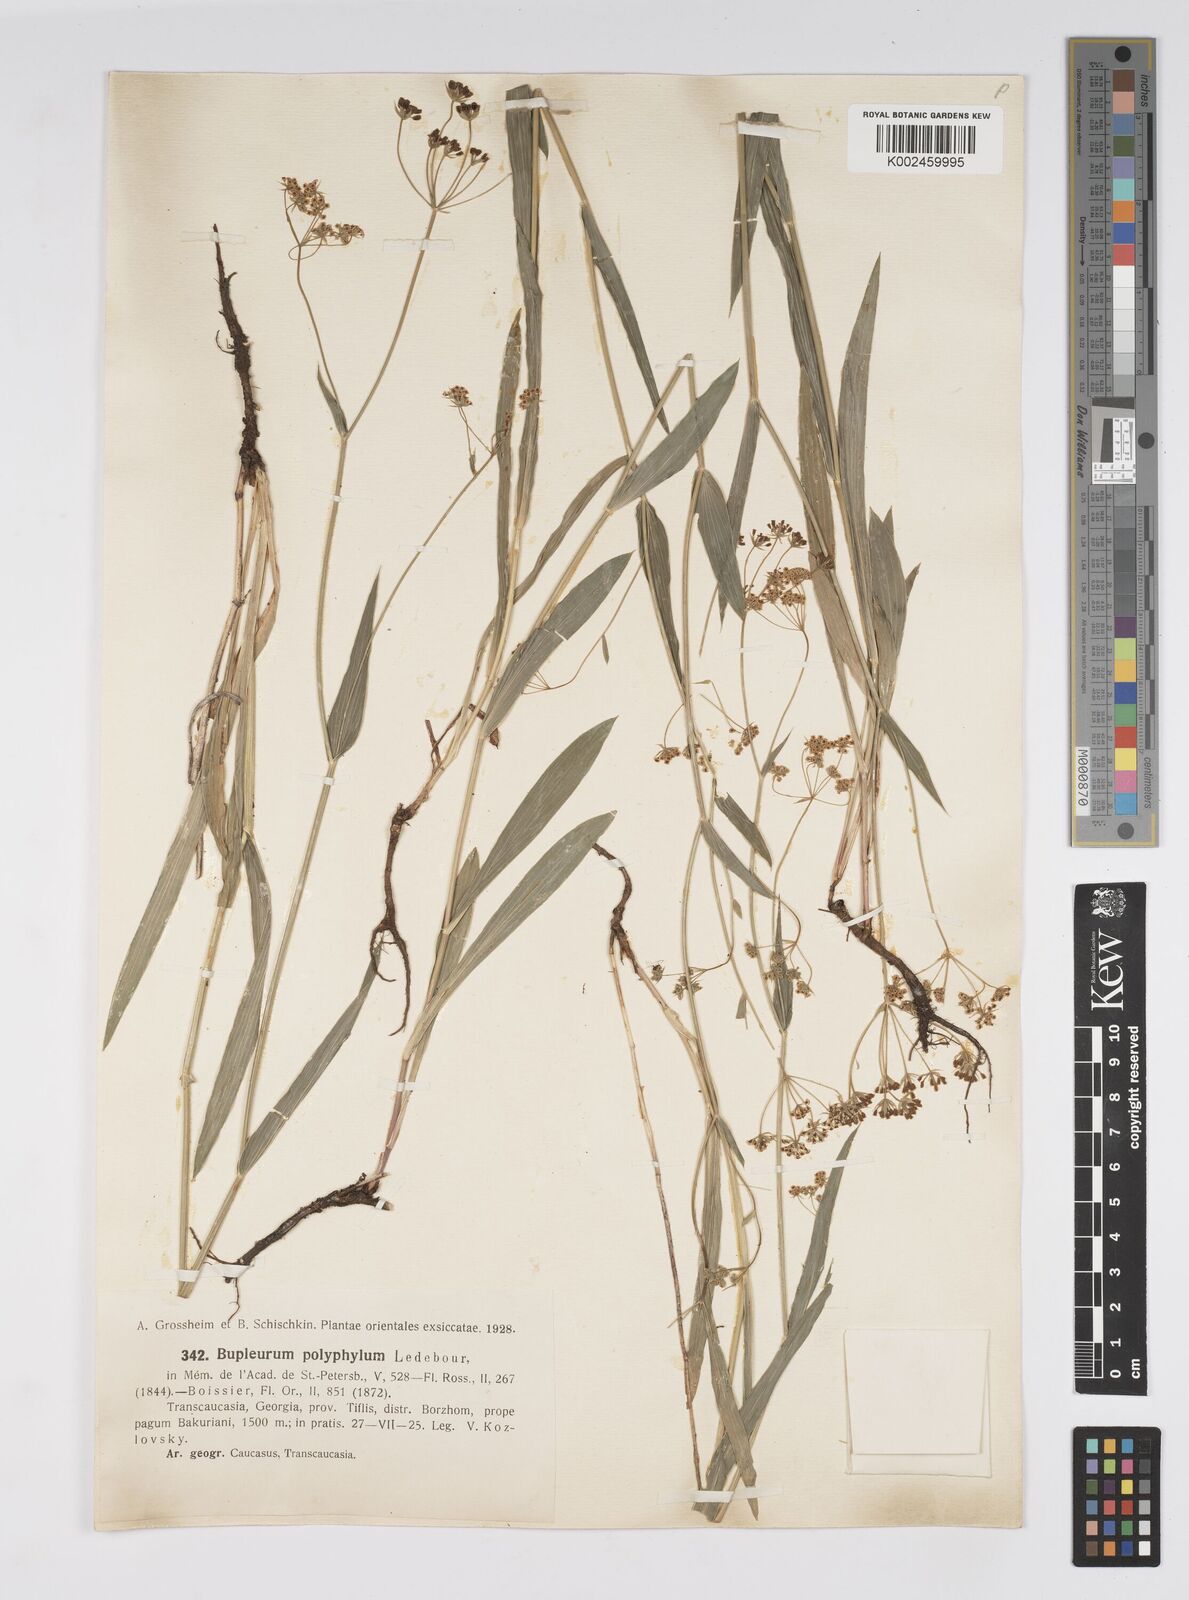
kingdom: Plantae
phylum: Tracheophyta
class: Magnoliopsida
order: Apiales
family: Apiaceae
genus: Bupleurum
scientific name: Bupleurum falcatum
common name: Sickle-leaved hare's-ear
